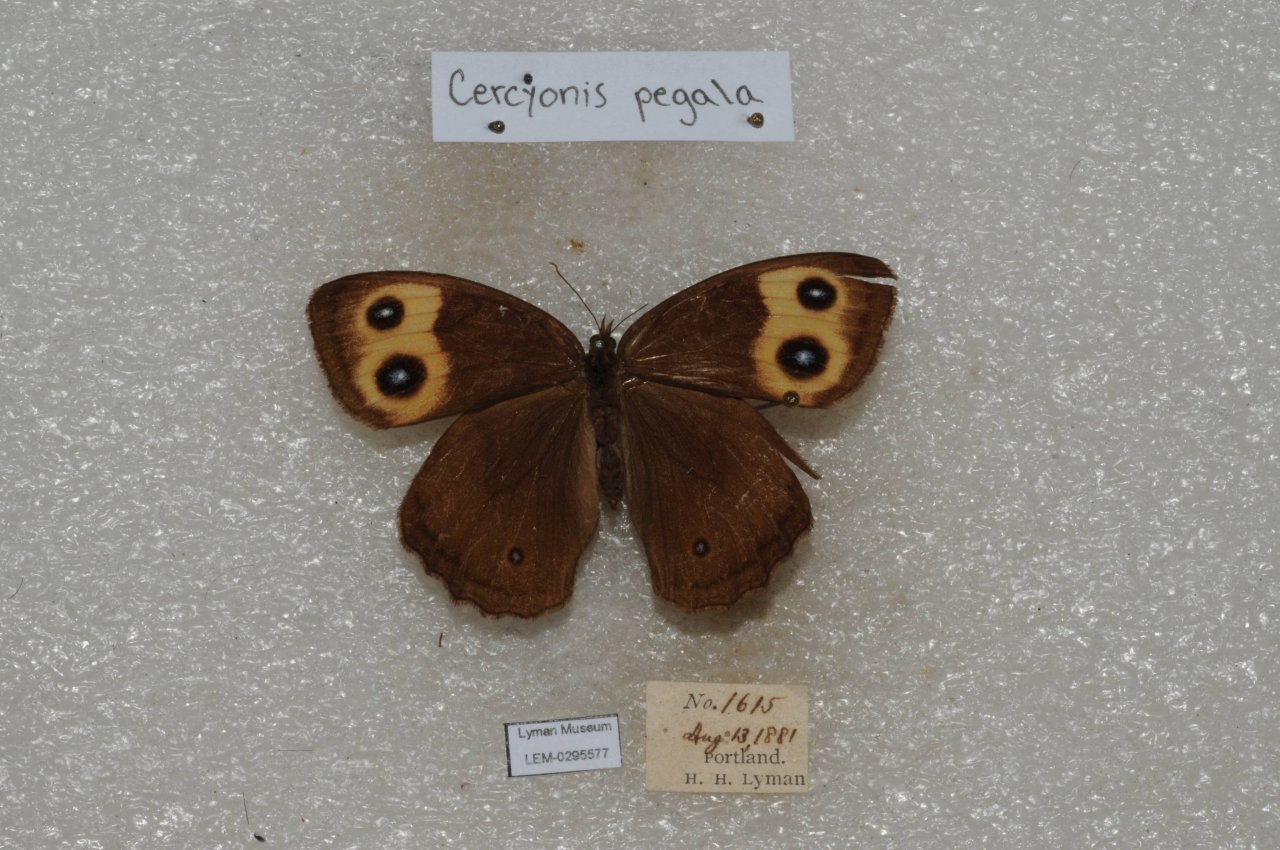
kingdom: Animalia
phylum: Arthropoda
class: Insecta
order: Lepidoptera
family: Nymphalidae
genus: Cercyonis
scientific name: Cercyonis pegala
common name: Common Wood-Nymph
